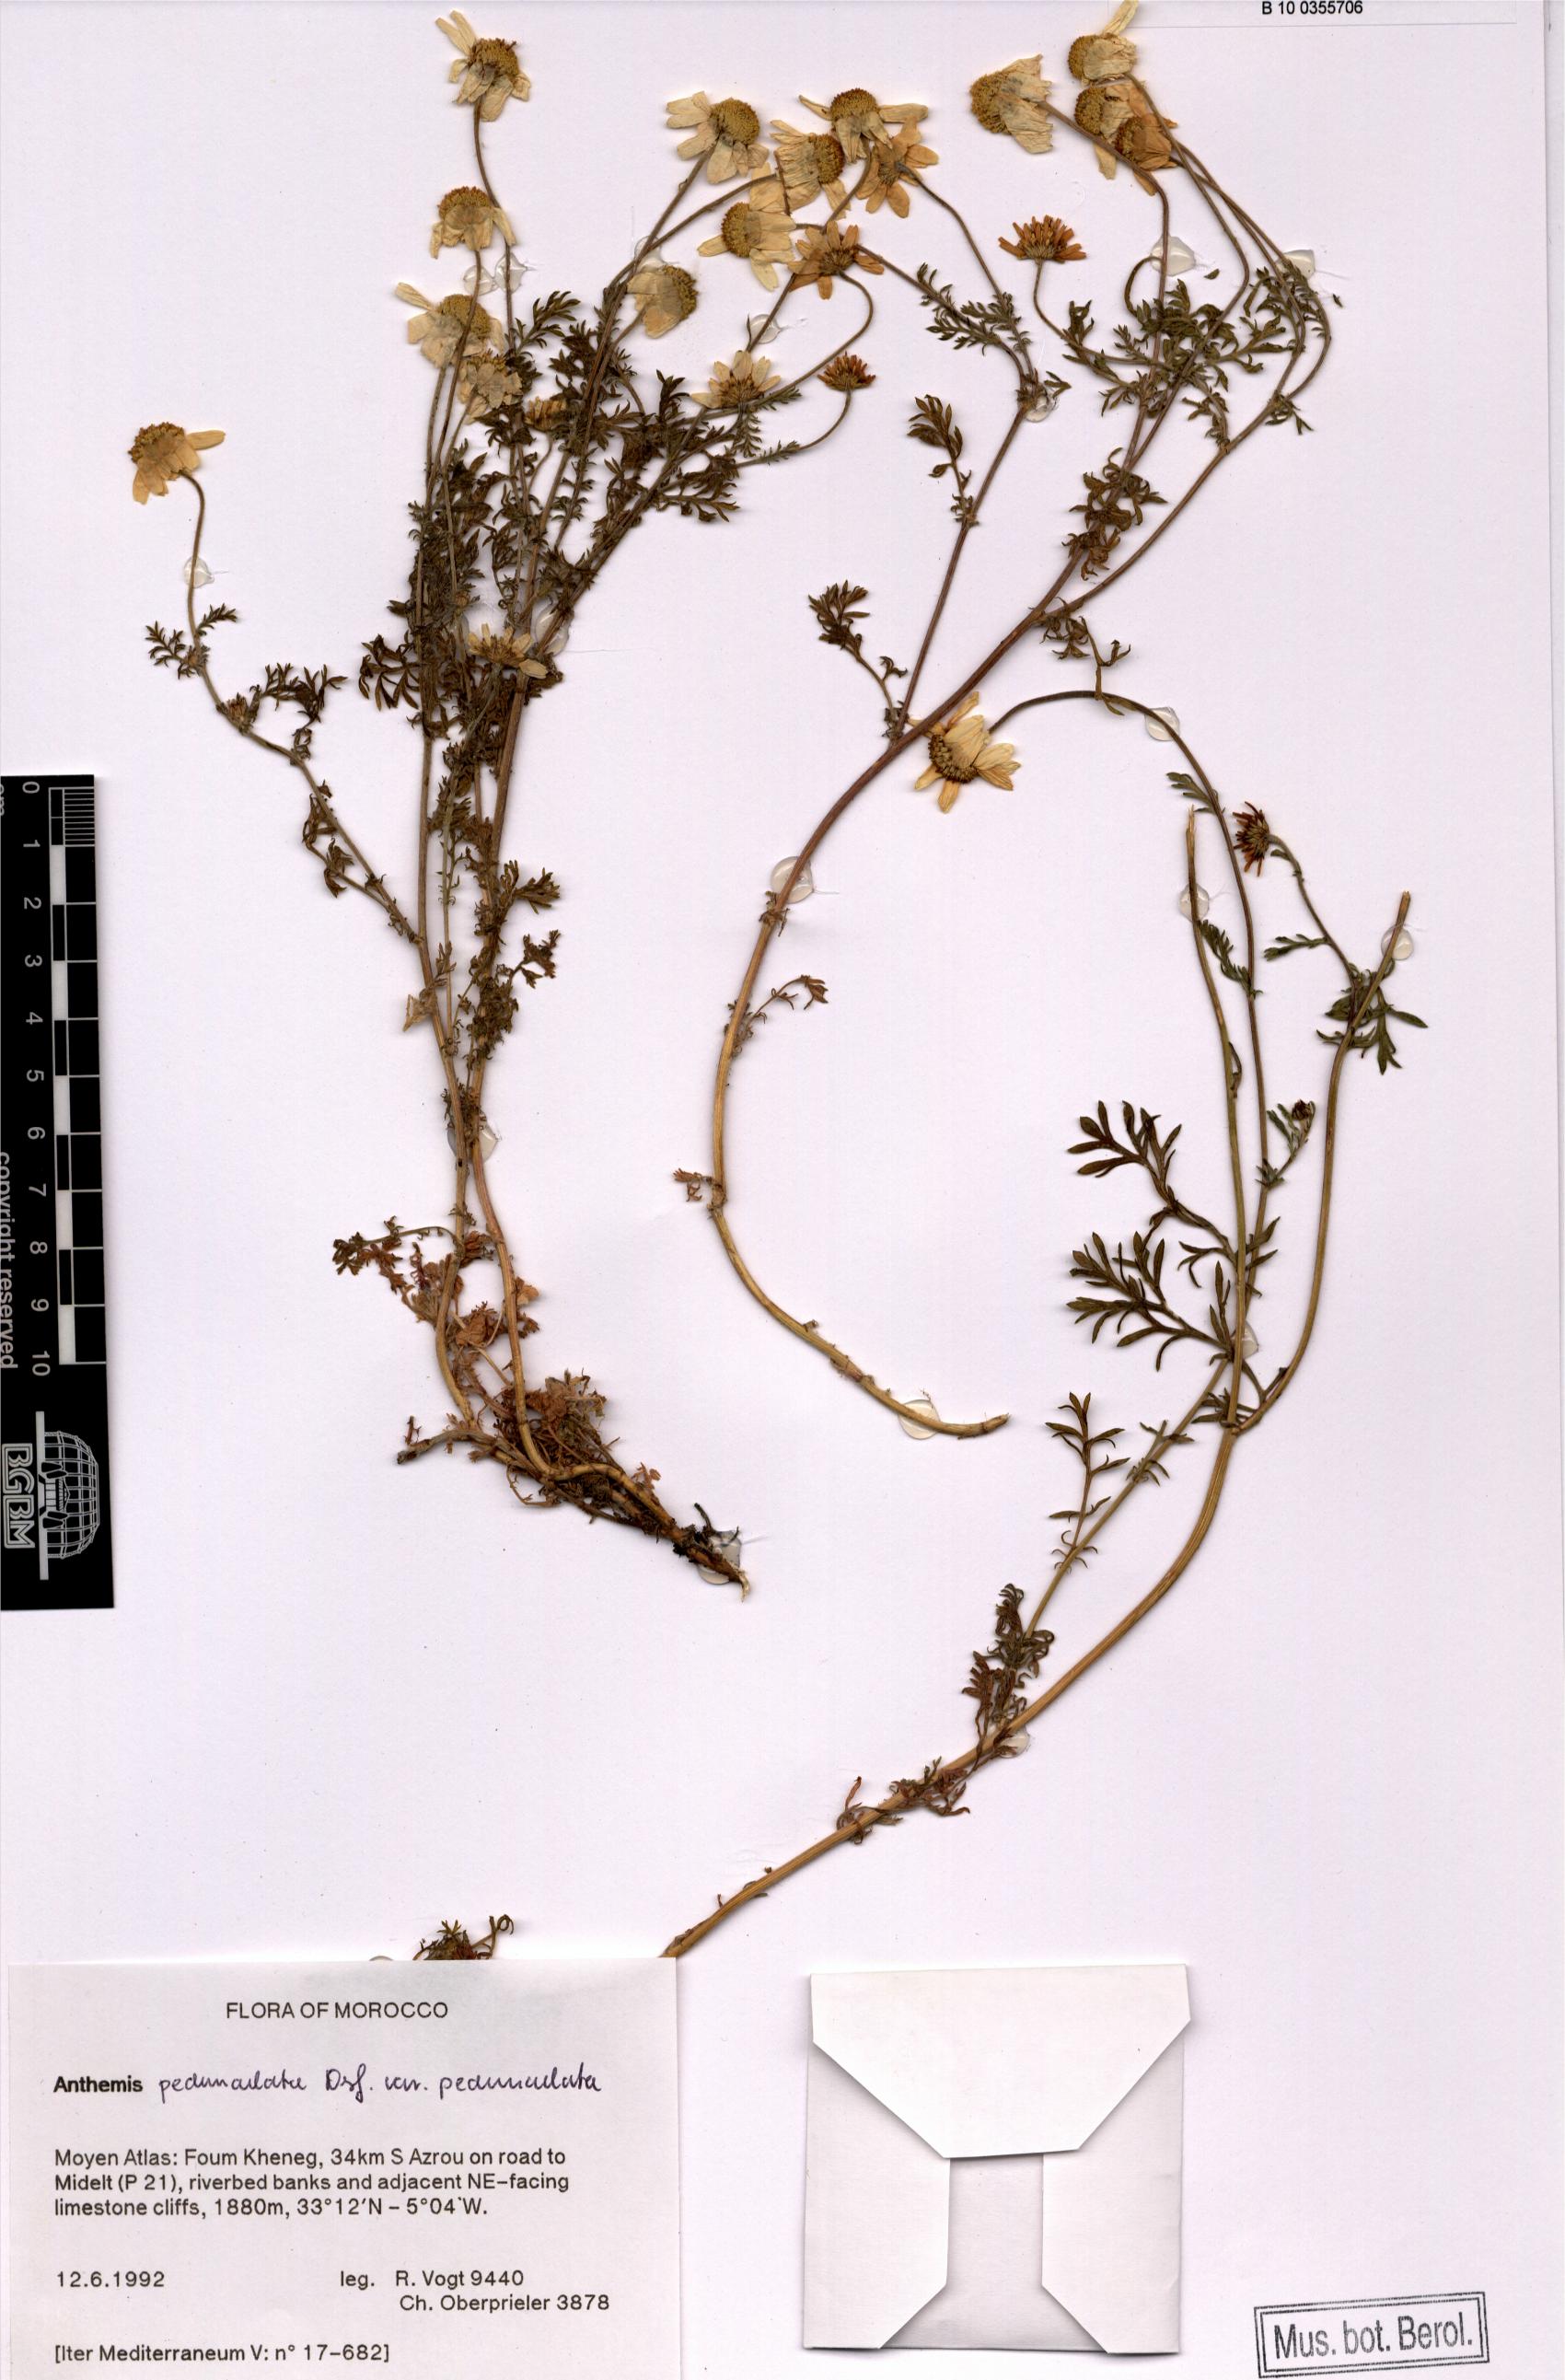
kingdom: Plantae
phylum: Tracheophyta
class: Magnoliopsida
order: Asterales
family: Asteraceae
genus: Anthemis
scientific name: Anthemis pedunculata
